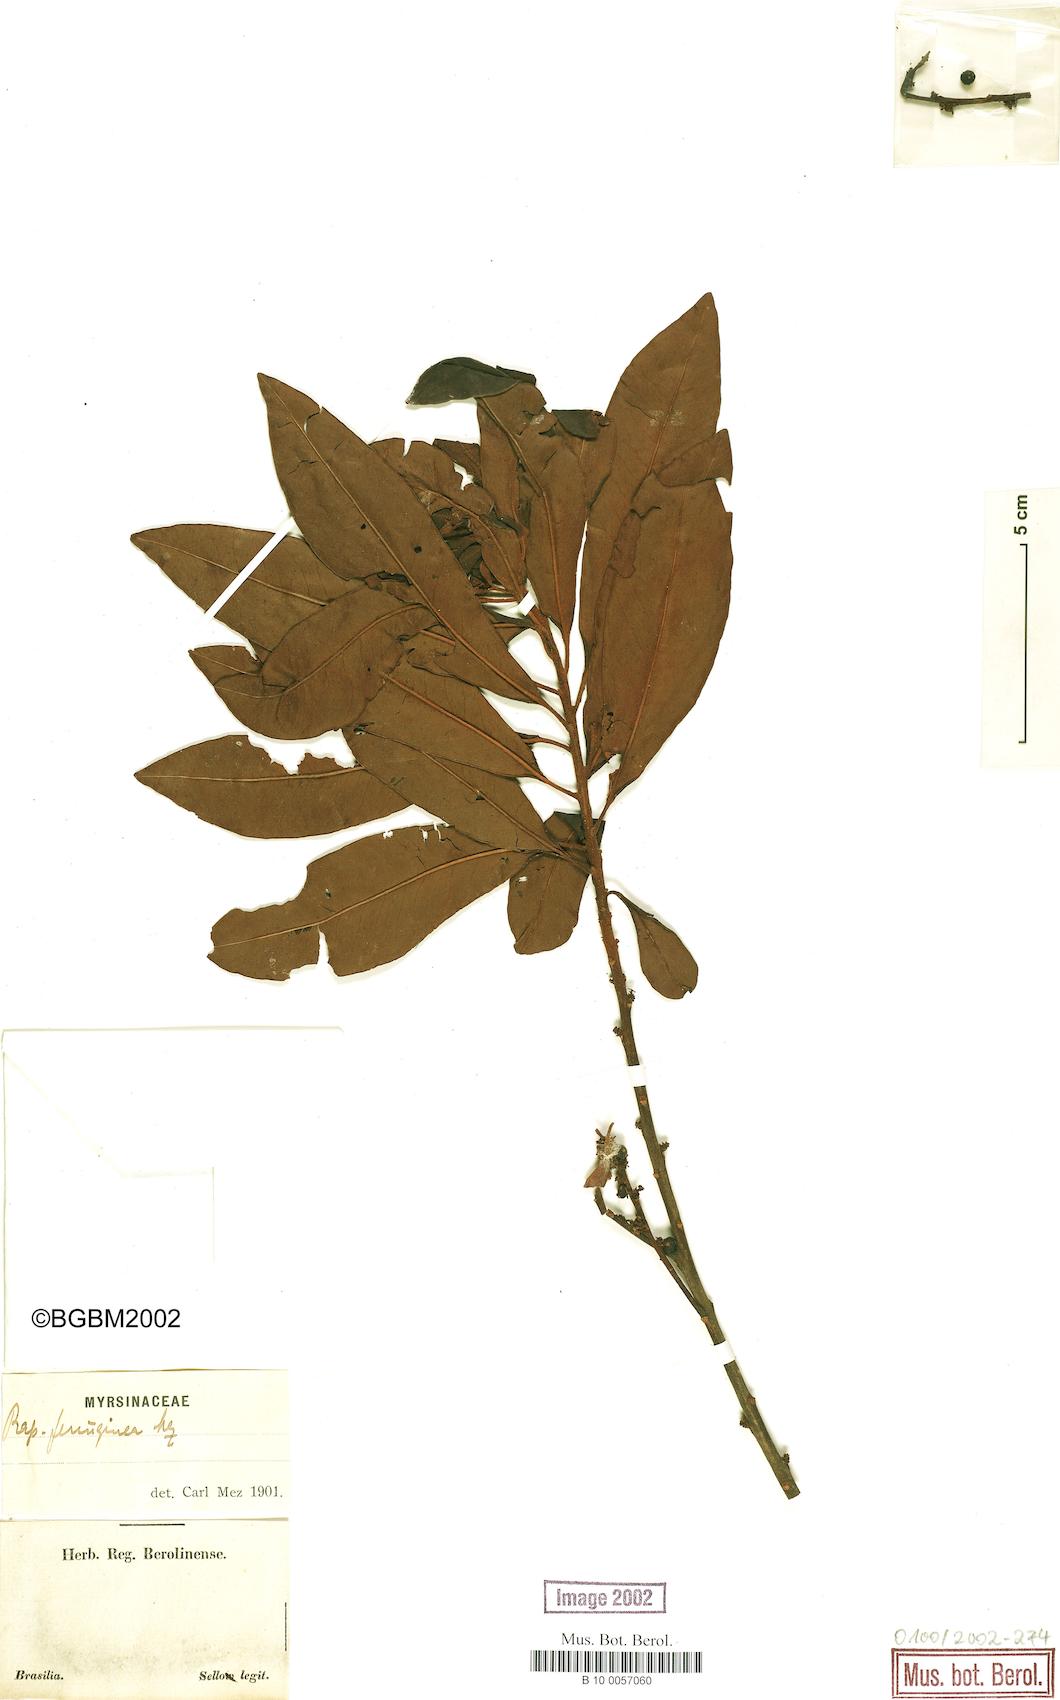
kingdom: Plantae
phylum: Tracheophyta
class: Magnoliopsida
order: Ericales
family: Primulaceae
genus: Myrsine
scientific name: Myrsine coriacea
